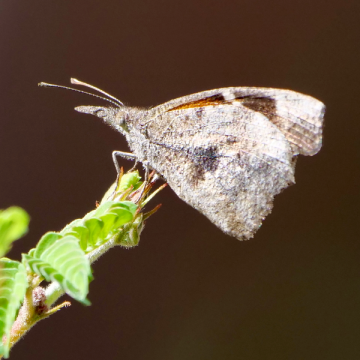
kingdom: Animalia
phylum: Arthropoda
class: Insecta
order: Lepidoptera
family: Nymphalidae
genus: Libytheana
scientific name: Libytheana carinenta
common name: American Snout
